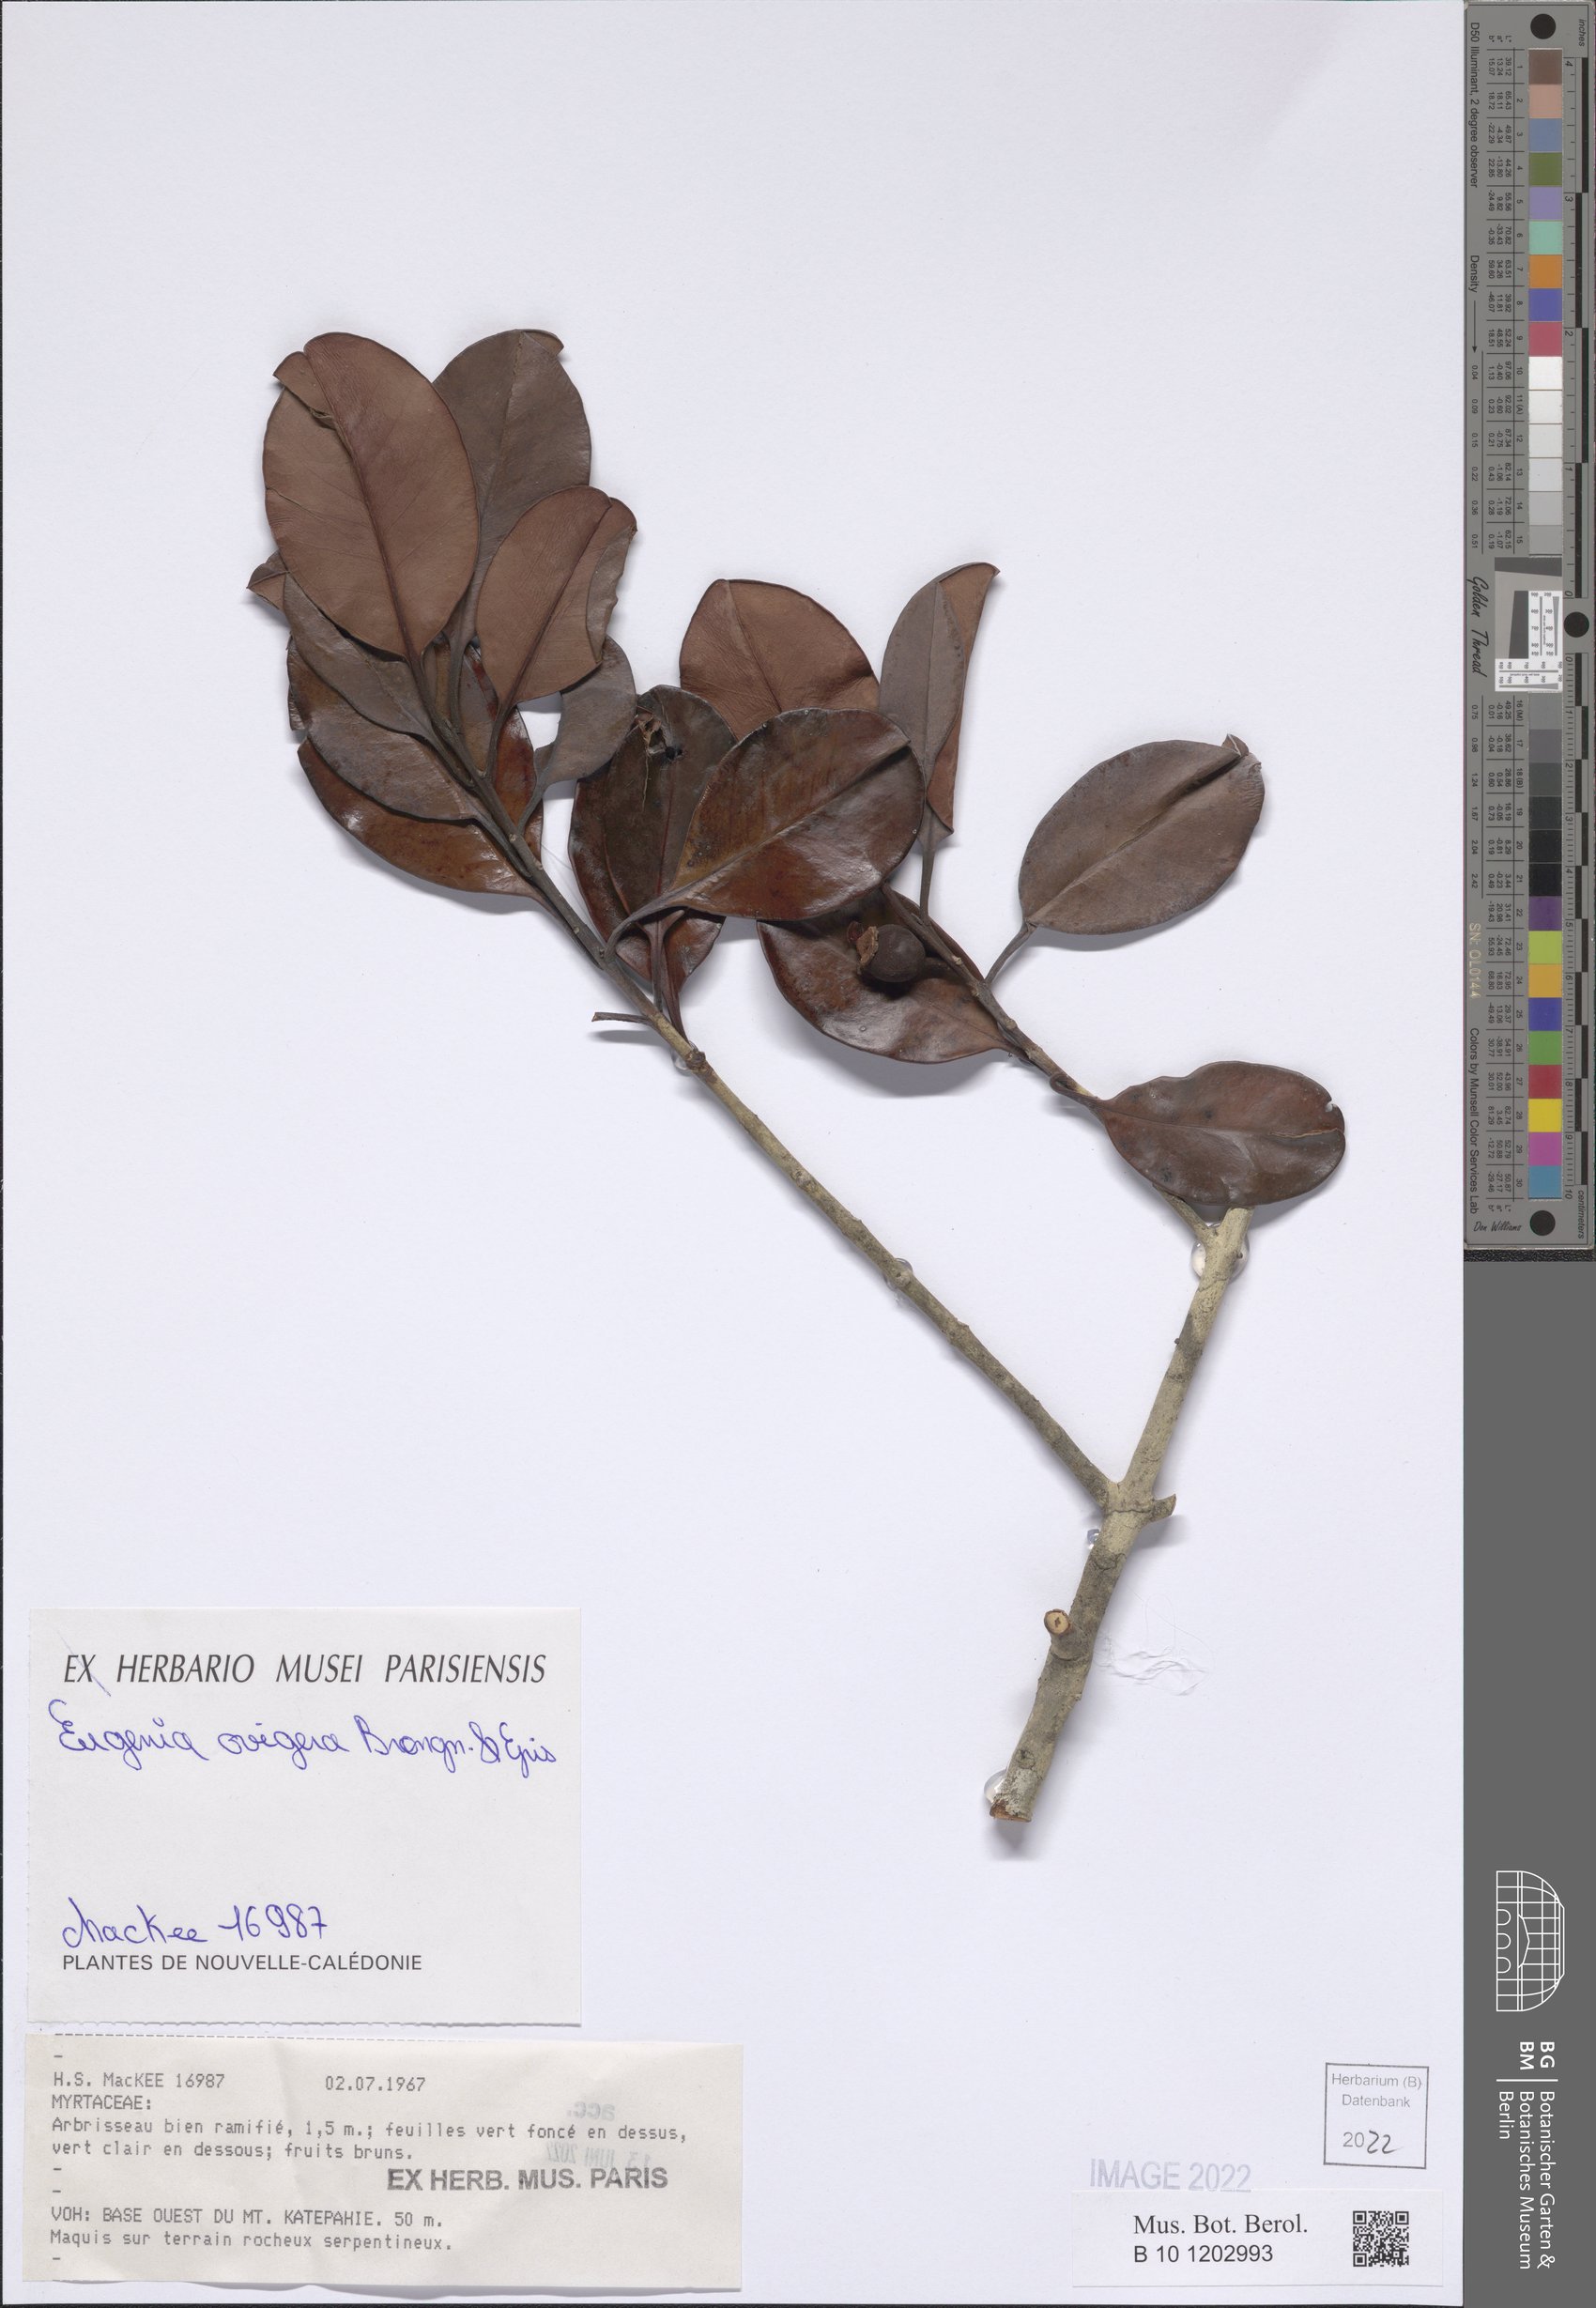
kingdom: Plantae
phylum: Tracheophyta
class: Magnoliopsida
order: Myrtales
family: Myrtaceae
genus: Stereocaryum
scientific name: Stereocaryum ovigerum
